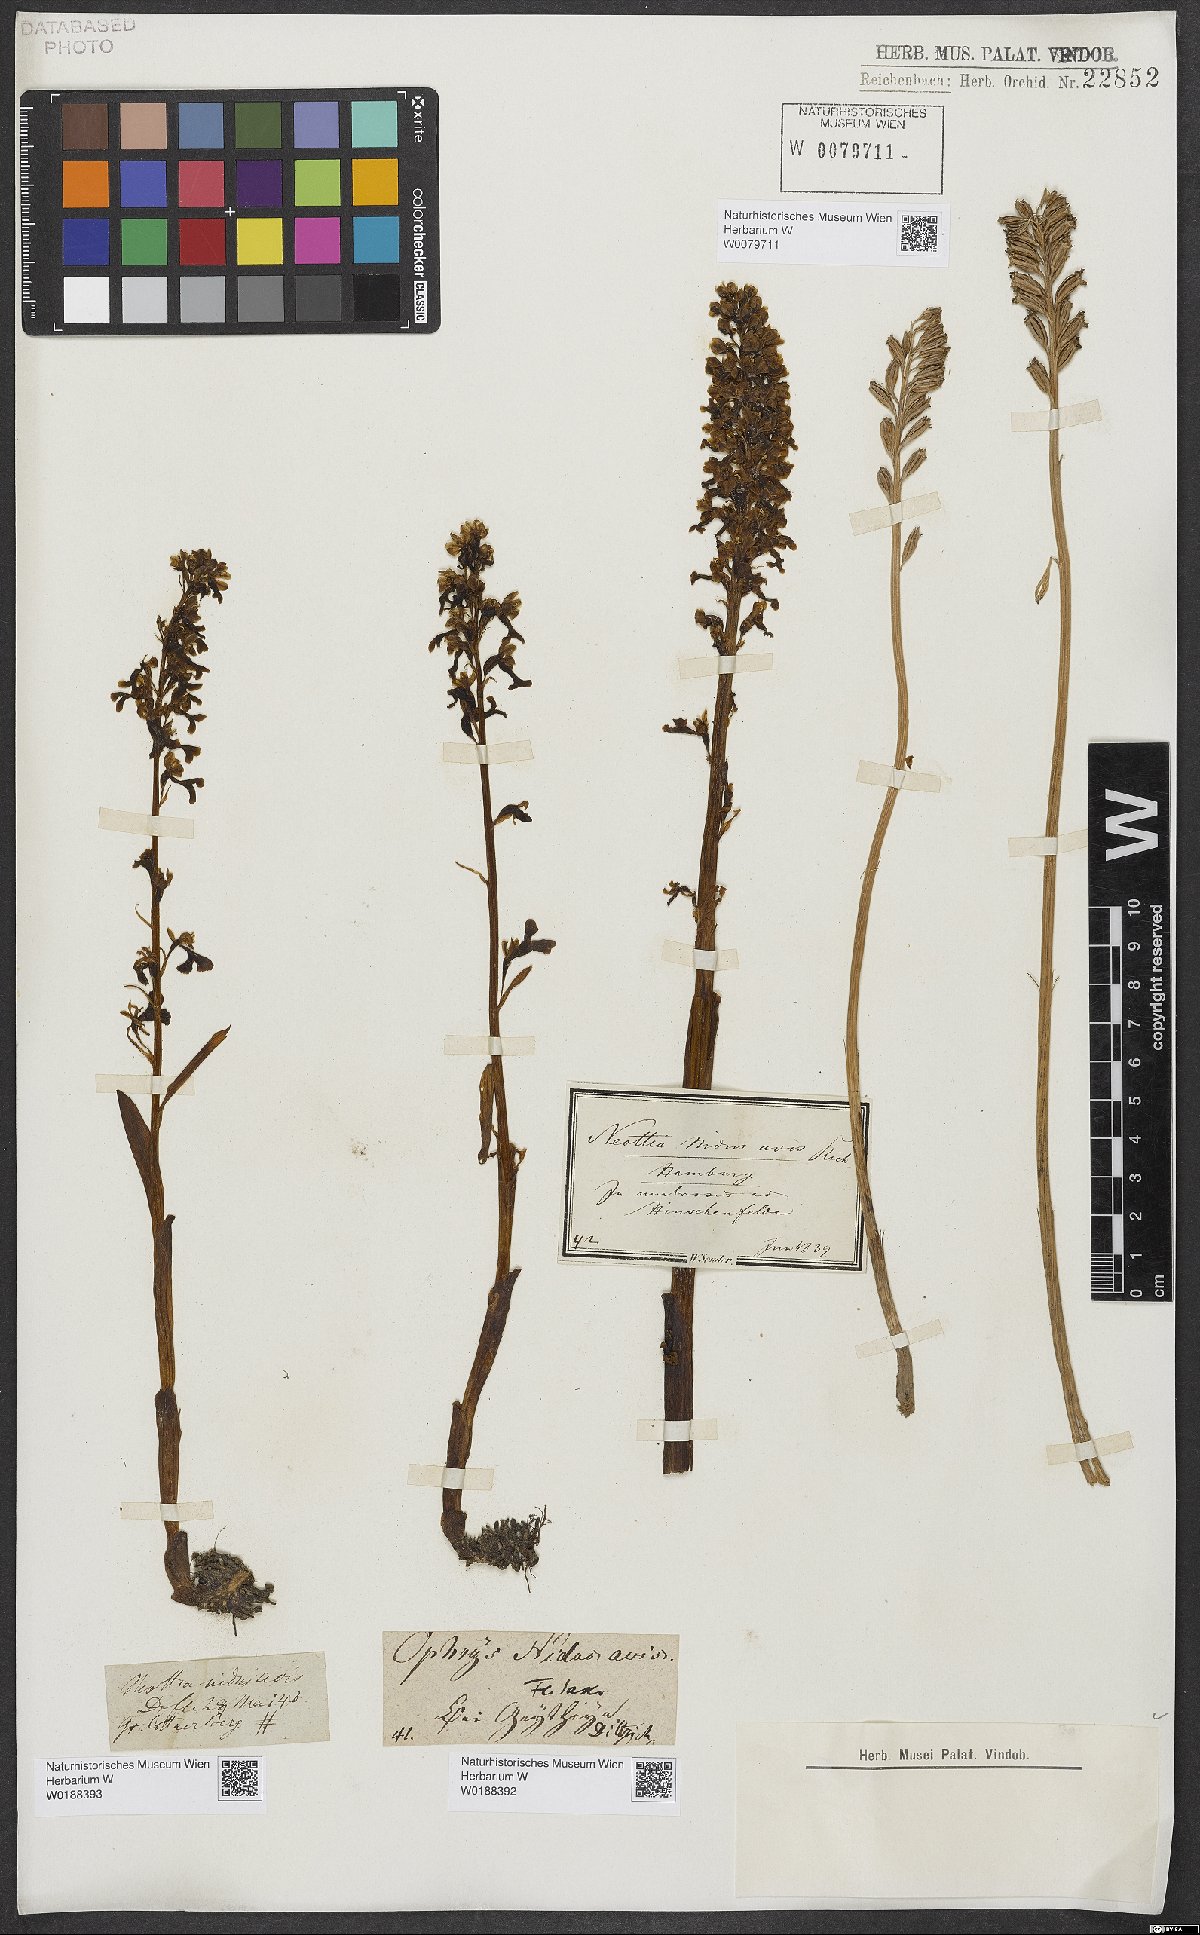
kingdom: Plantae
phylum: Tracheophyta
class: Liliopsida
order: Asparagales
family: Orchidaceae
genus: Neottia
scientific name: Neottia nidus-avis
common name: Bird's-nest orchid
